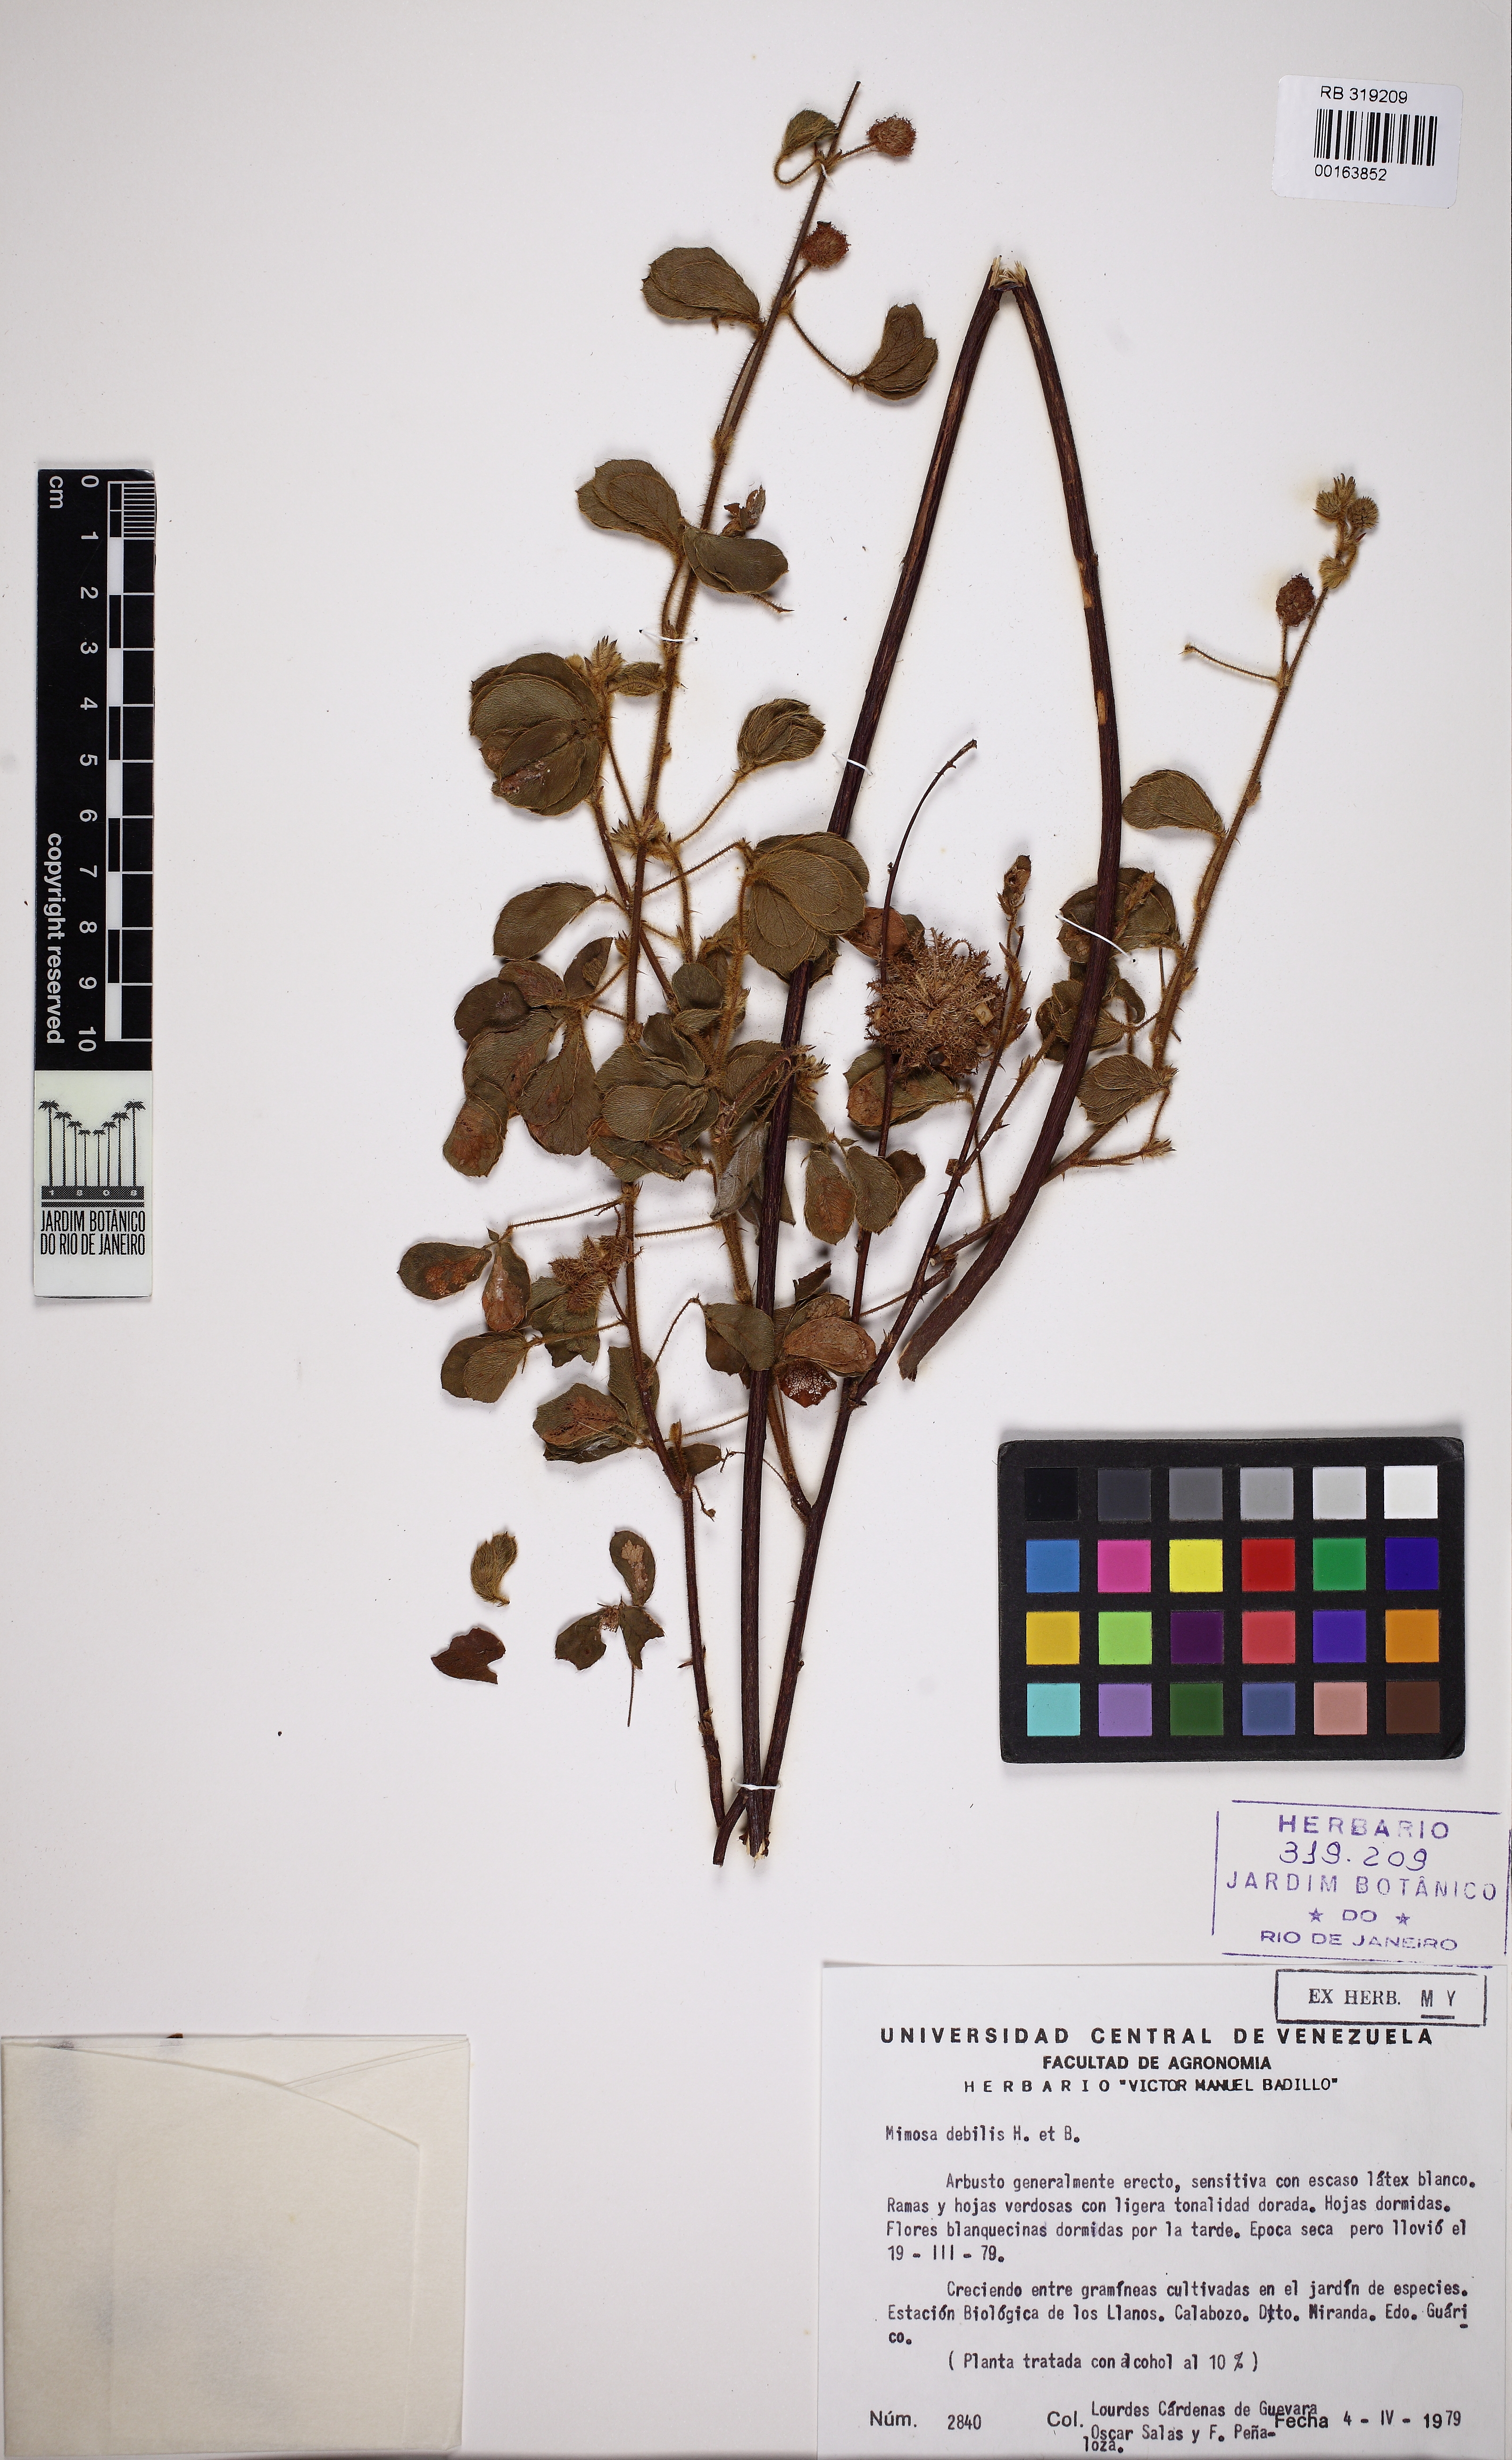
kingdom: Plantae
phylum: Tracheophyta
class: Magnoliopsida
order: Fabales
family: Fabaceae
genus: Mimosa
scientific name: Mimosa debilis
